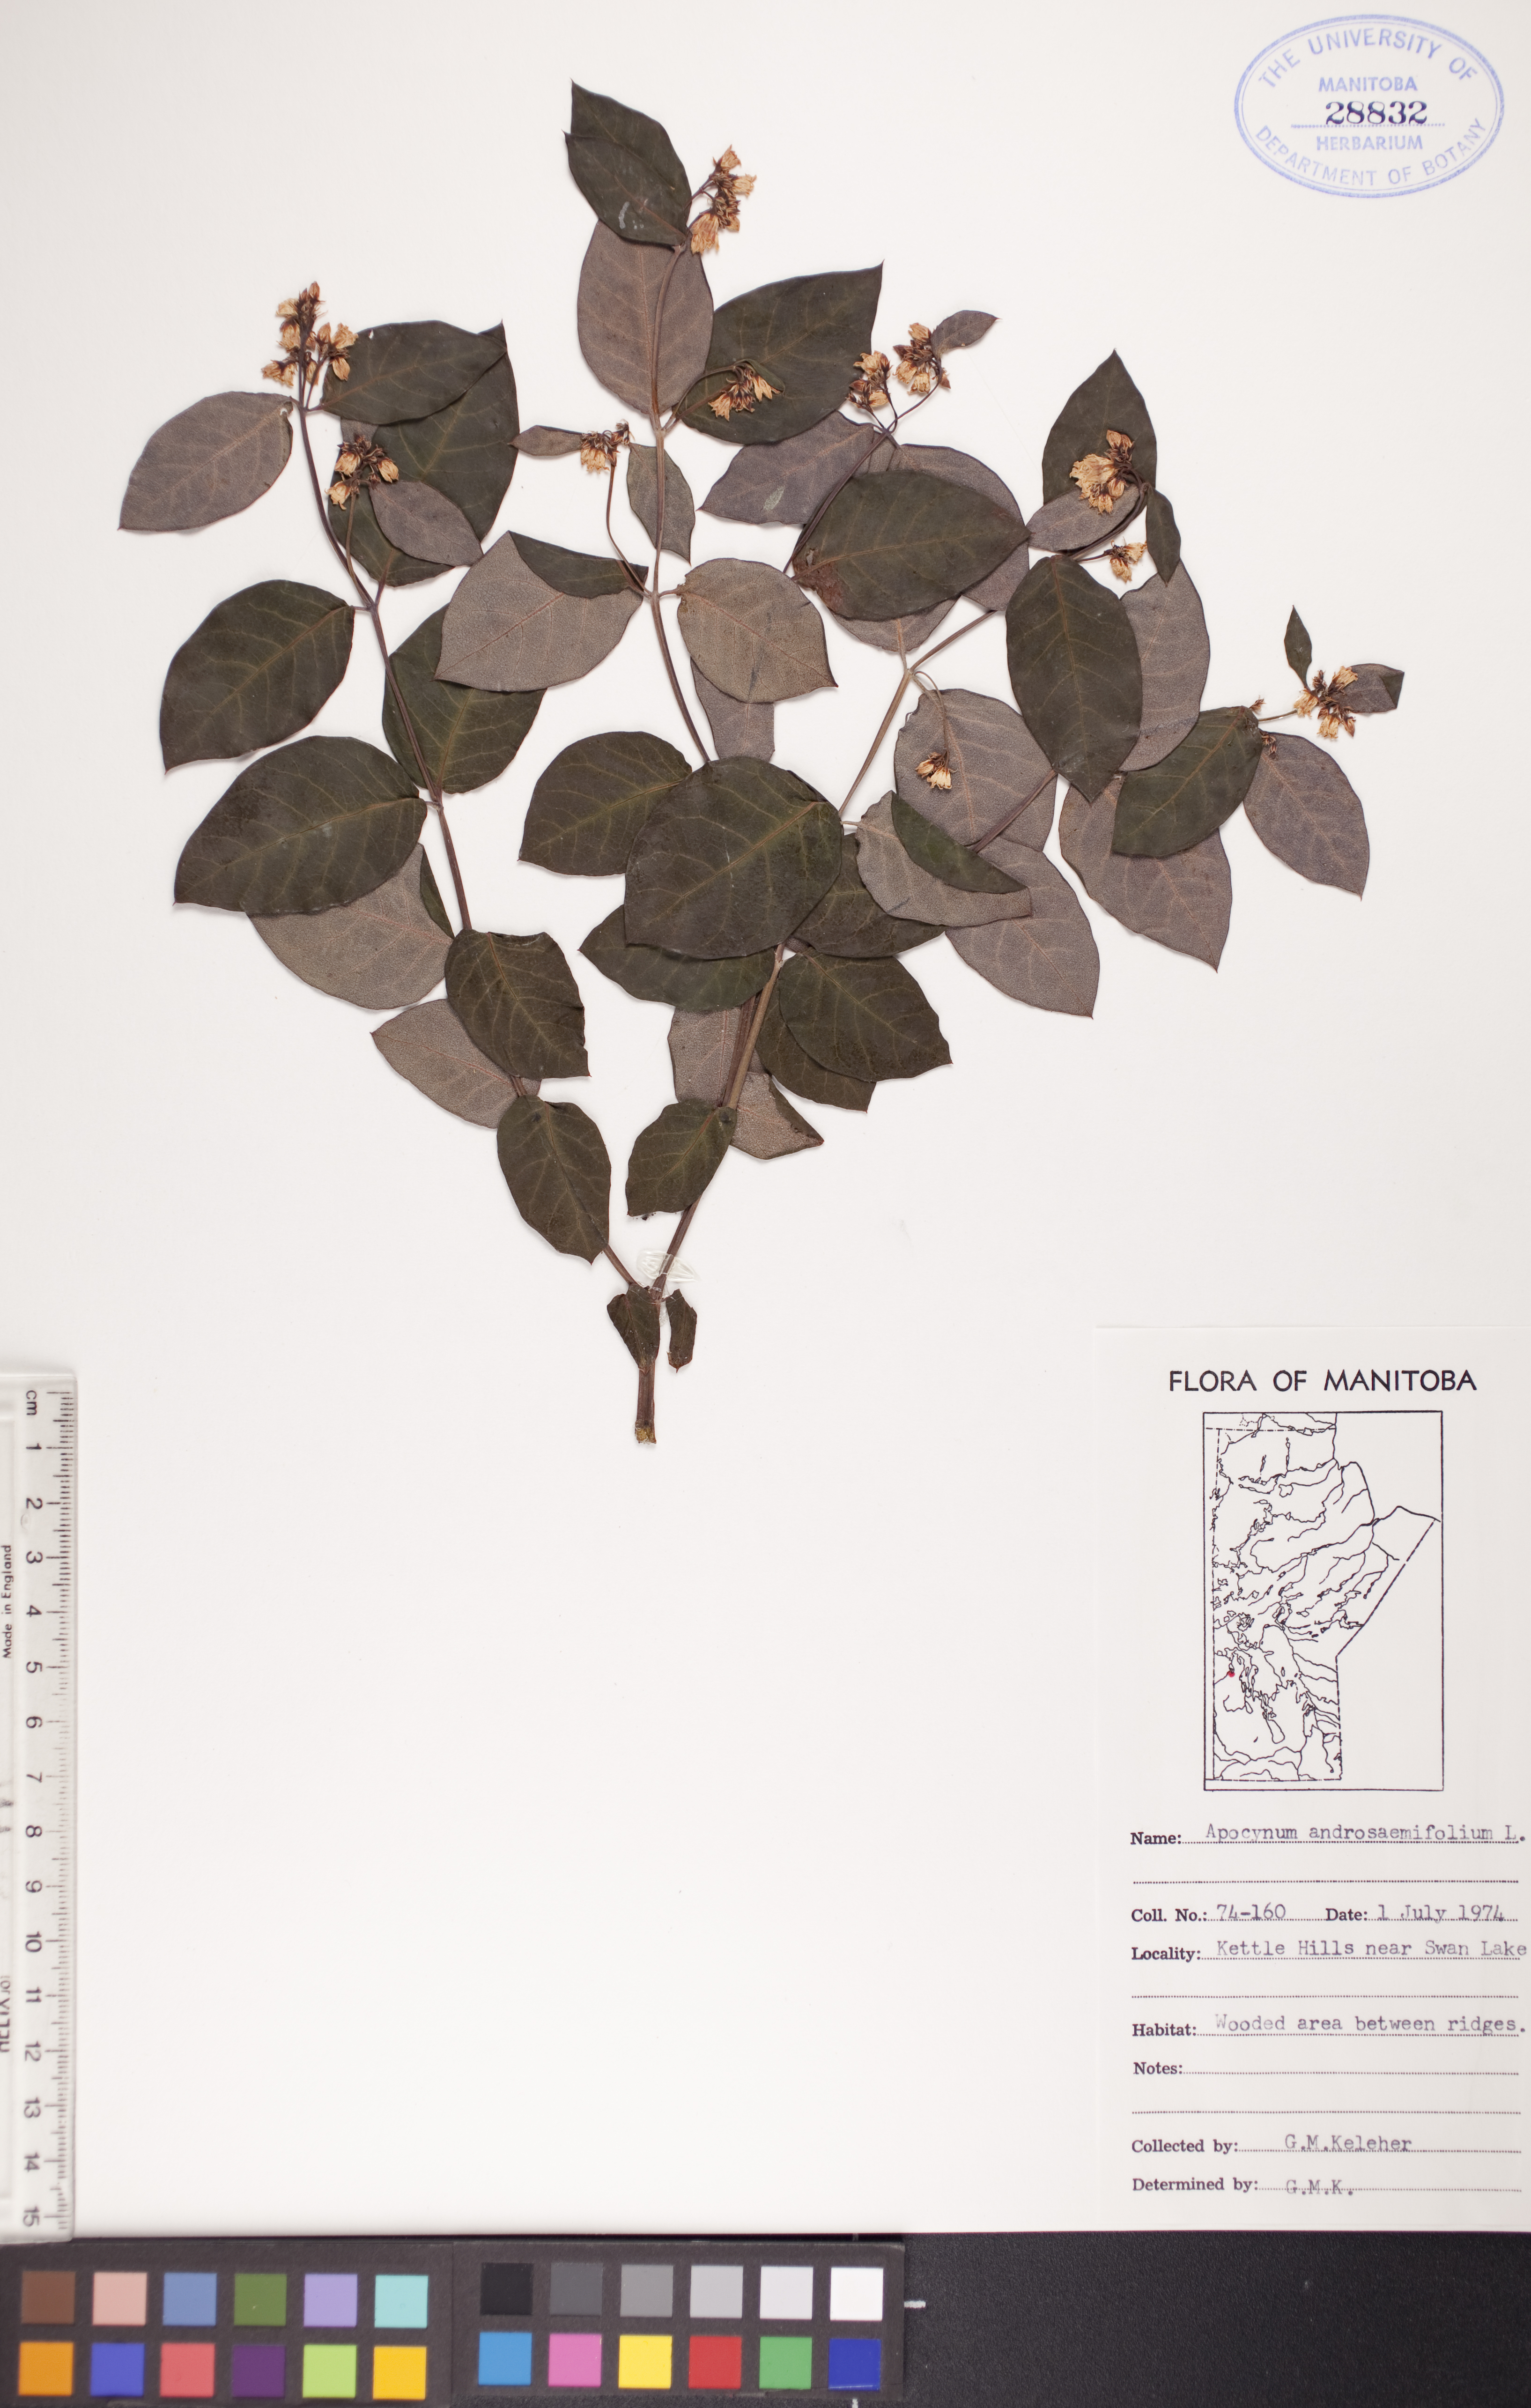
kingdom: Plantae
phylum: Tracheophyta
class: Magnoliopsida
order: Gentianales
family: Apocynaceae
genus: Apocynum
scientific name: Apocynum androsaemifolium
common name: Spreading dogbane
